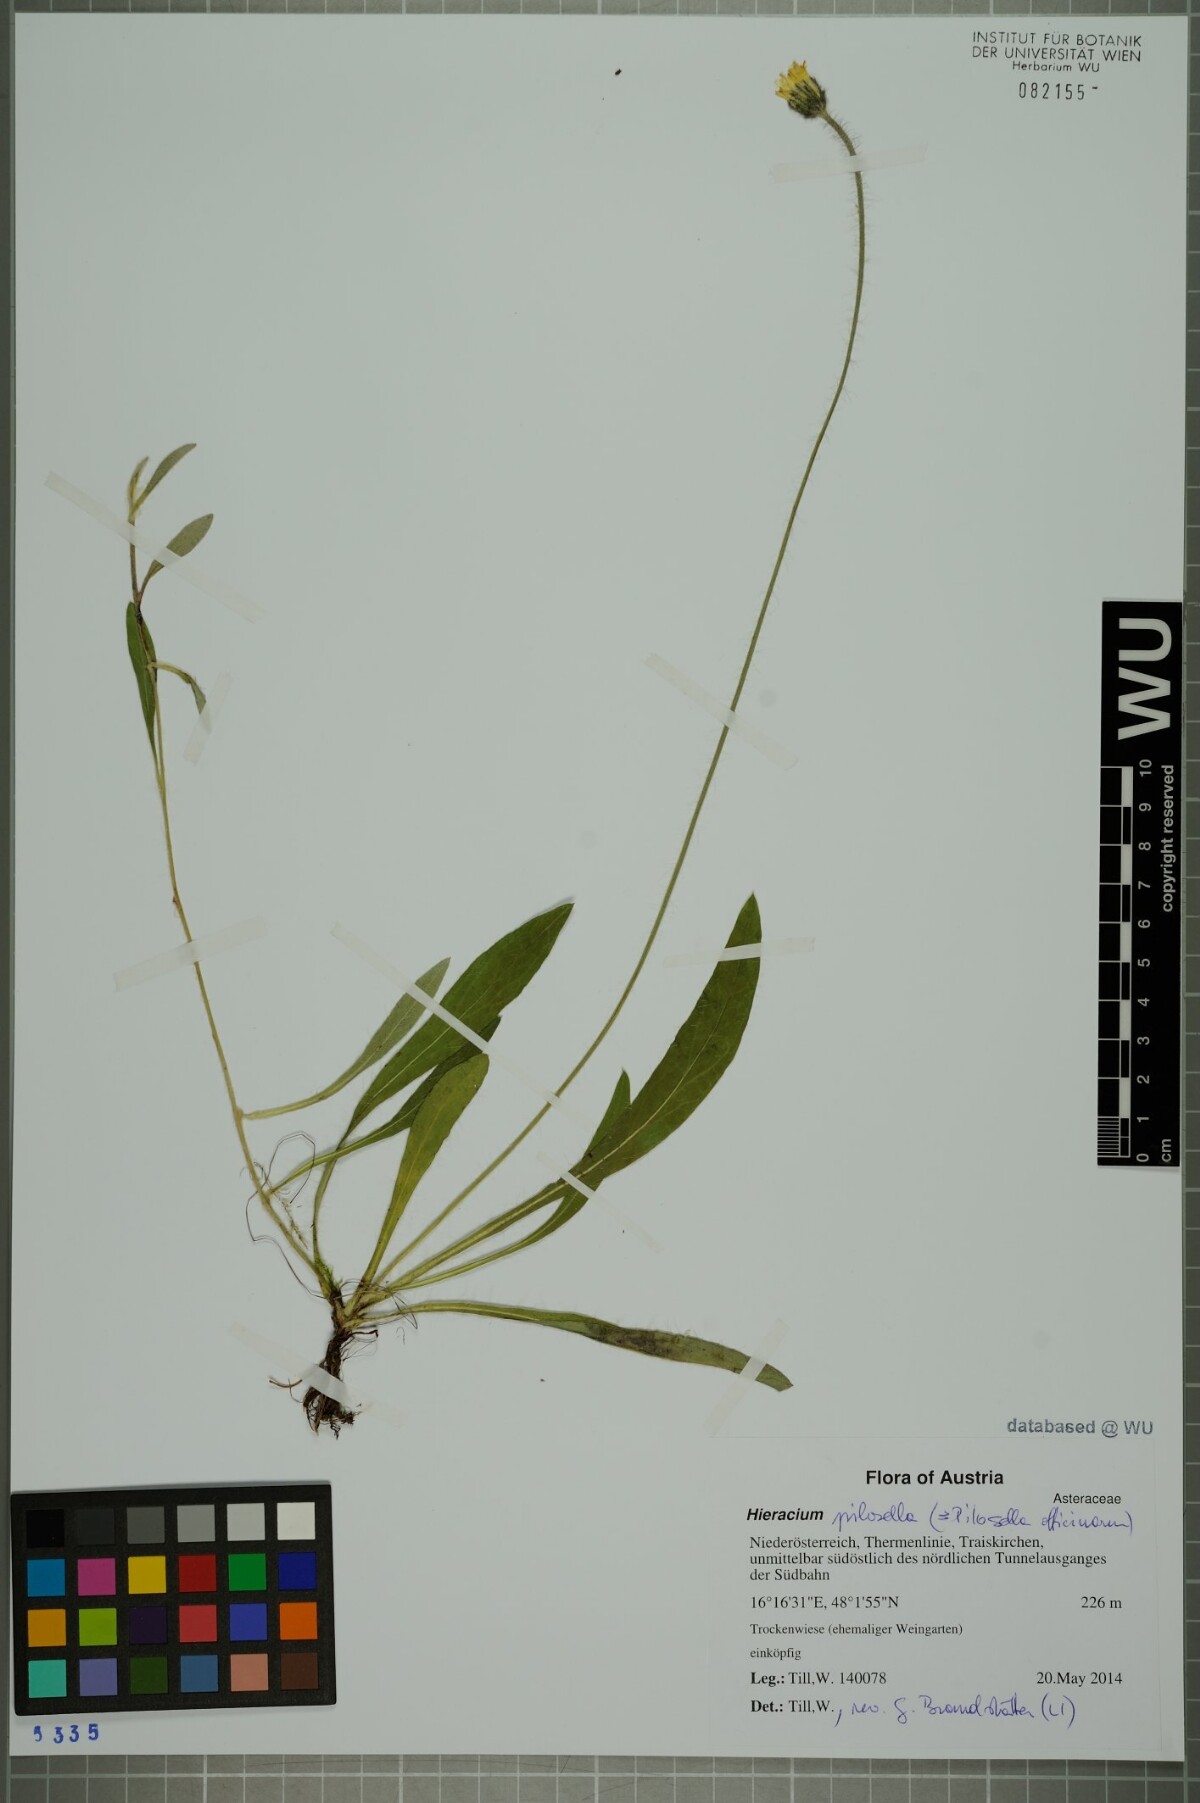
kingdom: Plantae
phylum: Tracheophyta
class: Magnoliopsida
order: Asterales
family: Asteraceae
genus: Pilosella
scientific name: Pilosella officinarum
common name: Mouse-ear hawkweed
